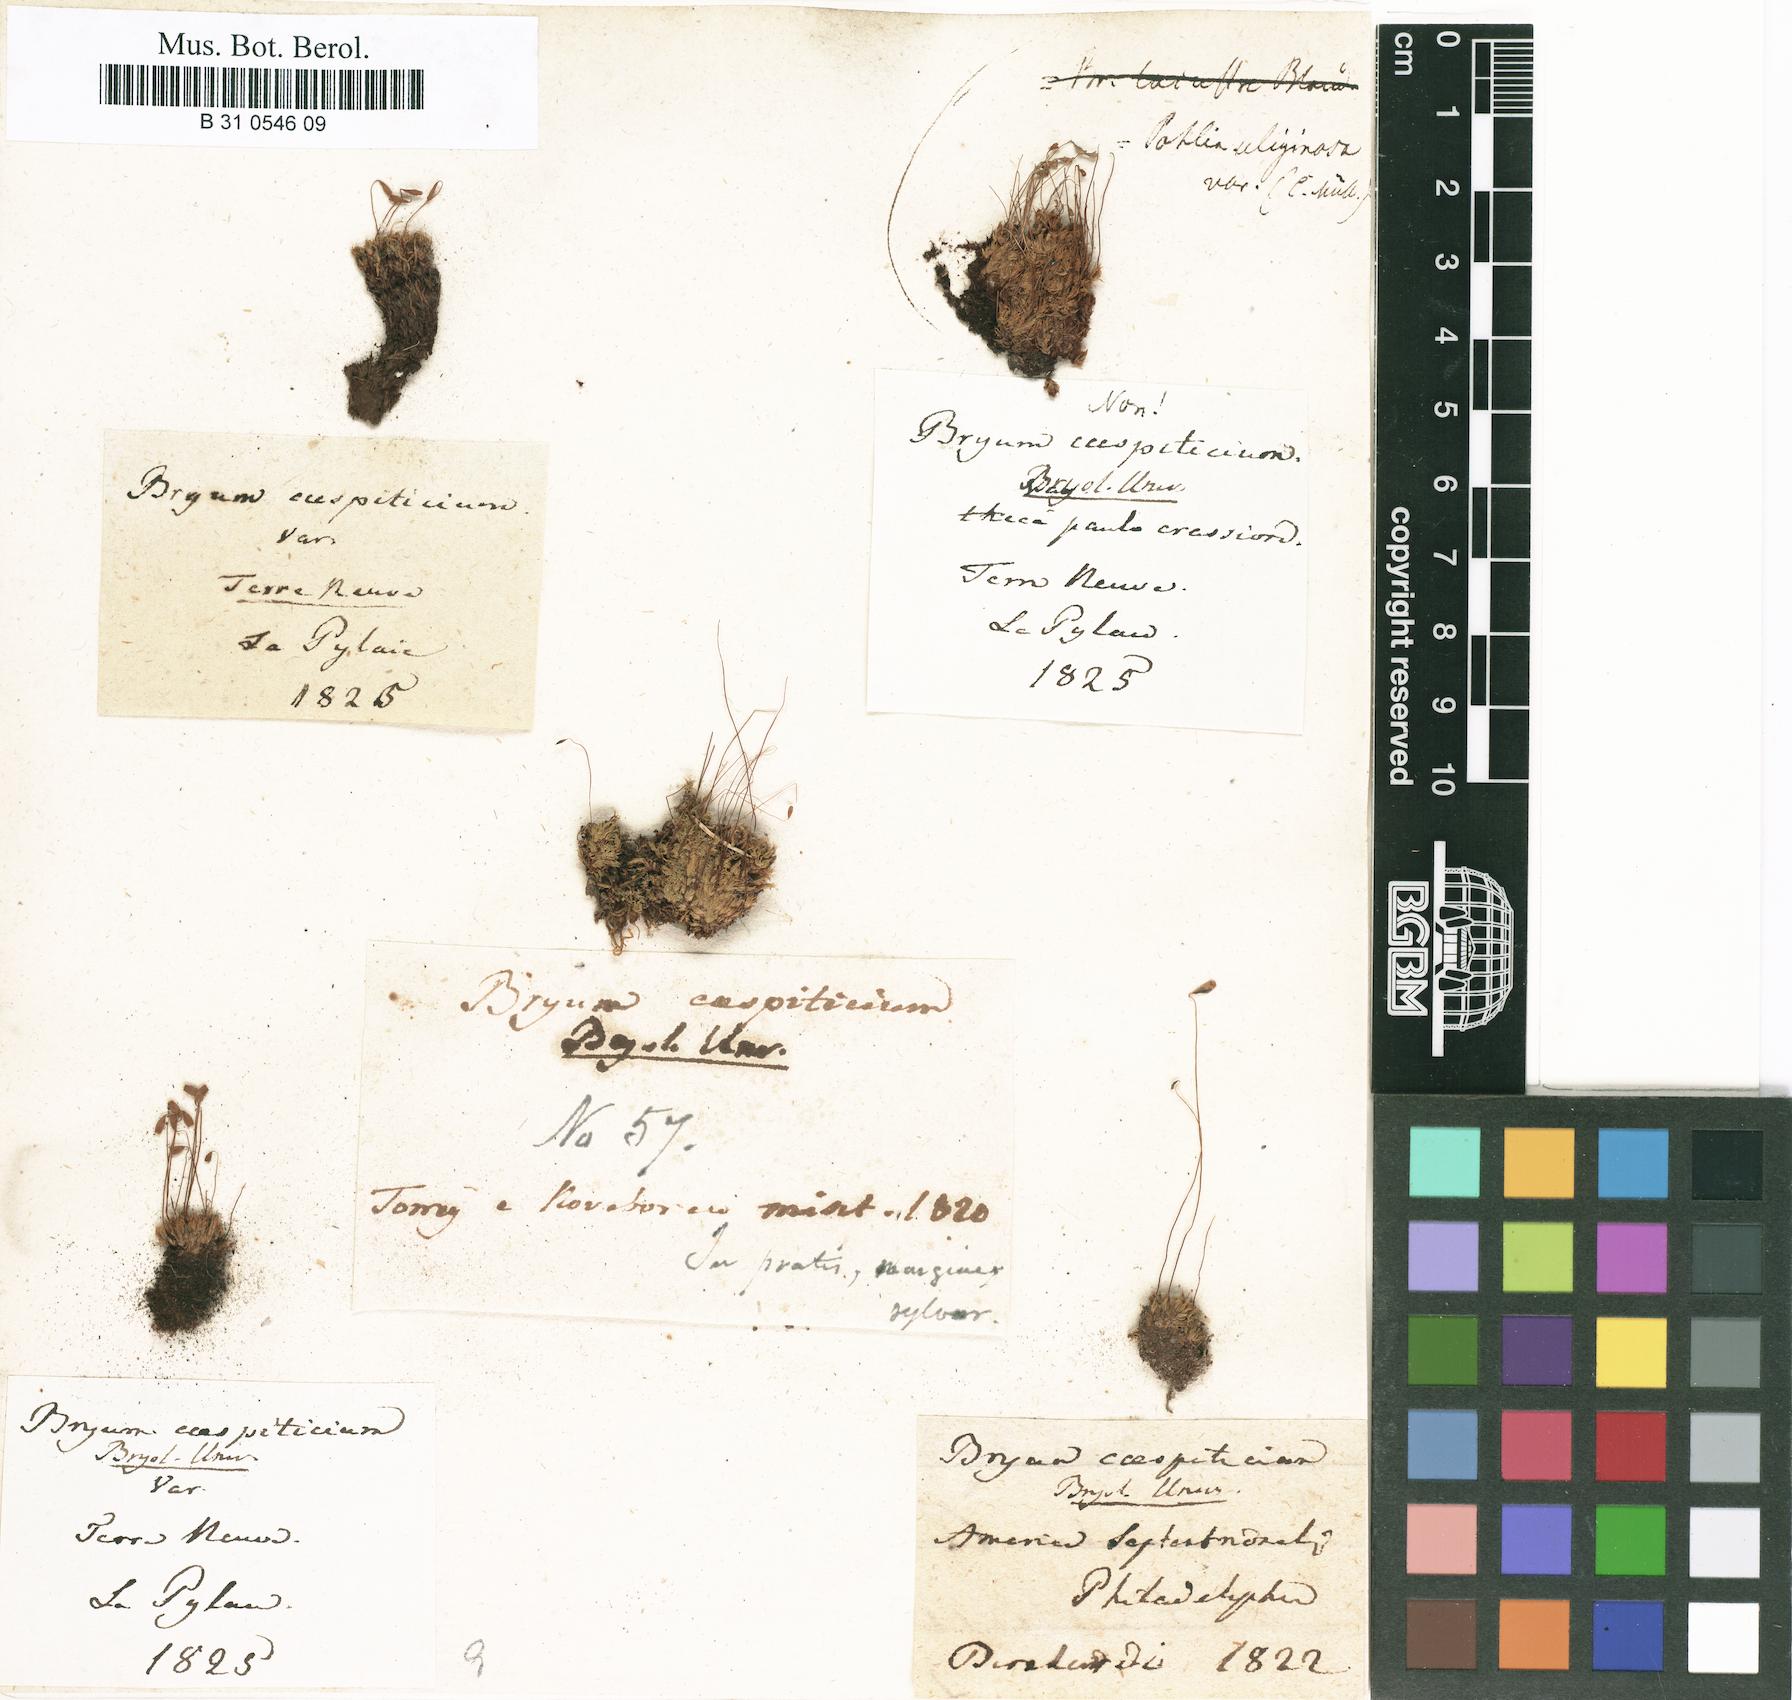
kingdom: Plantae
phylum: Bryophyta
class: Bryopsida
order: Bryales
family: Bryaceae
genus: Gemmabryum
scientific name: Gemmabryum caespiticium
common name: Handbell moss
